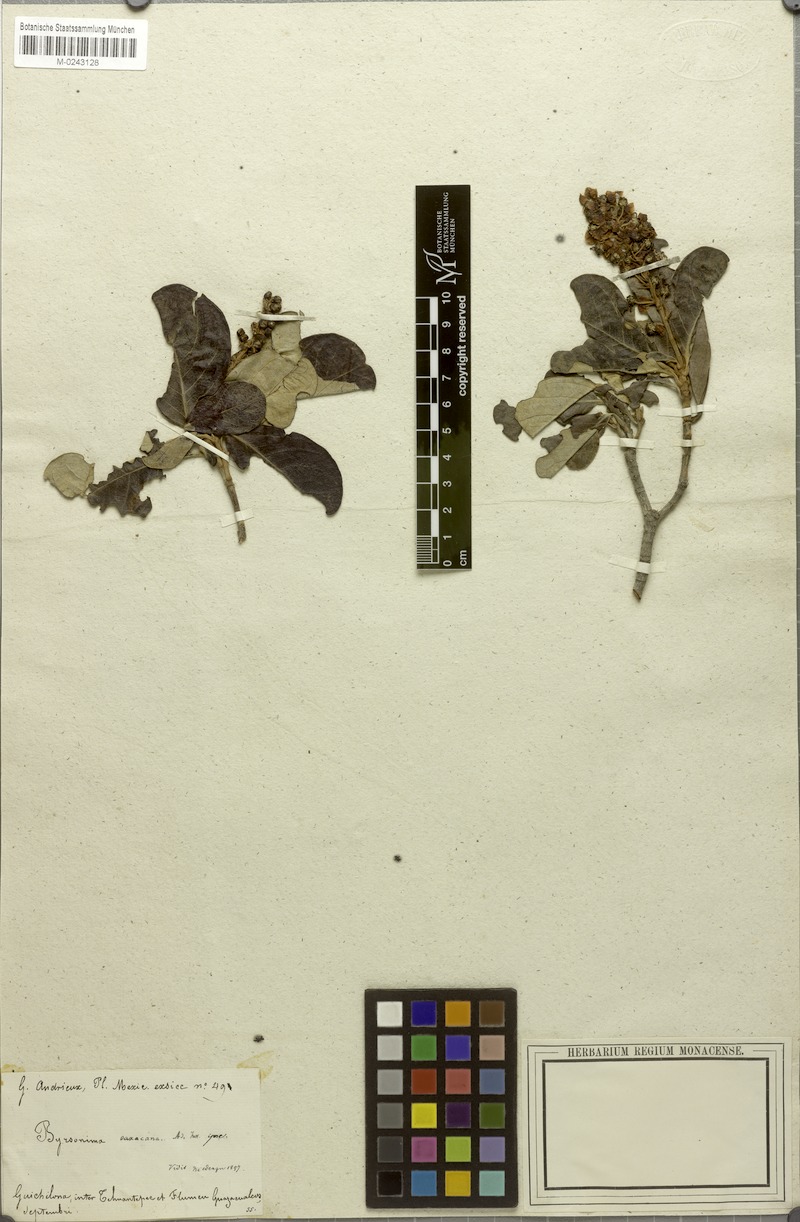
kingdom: Plantae
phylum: Tracheophyta
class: Magnoliopsida
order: Malpighiales
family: Malpighiaceae
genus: Byrsonima
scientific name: Byrsonima oaxacana
